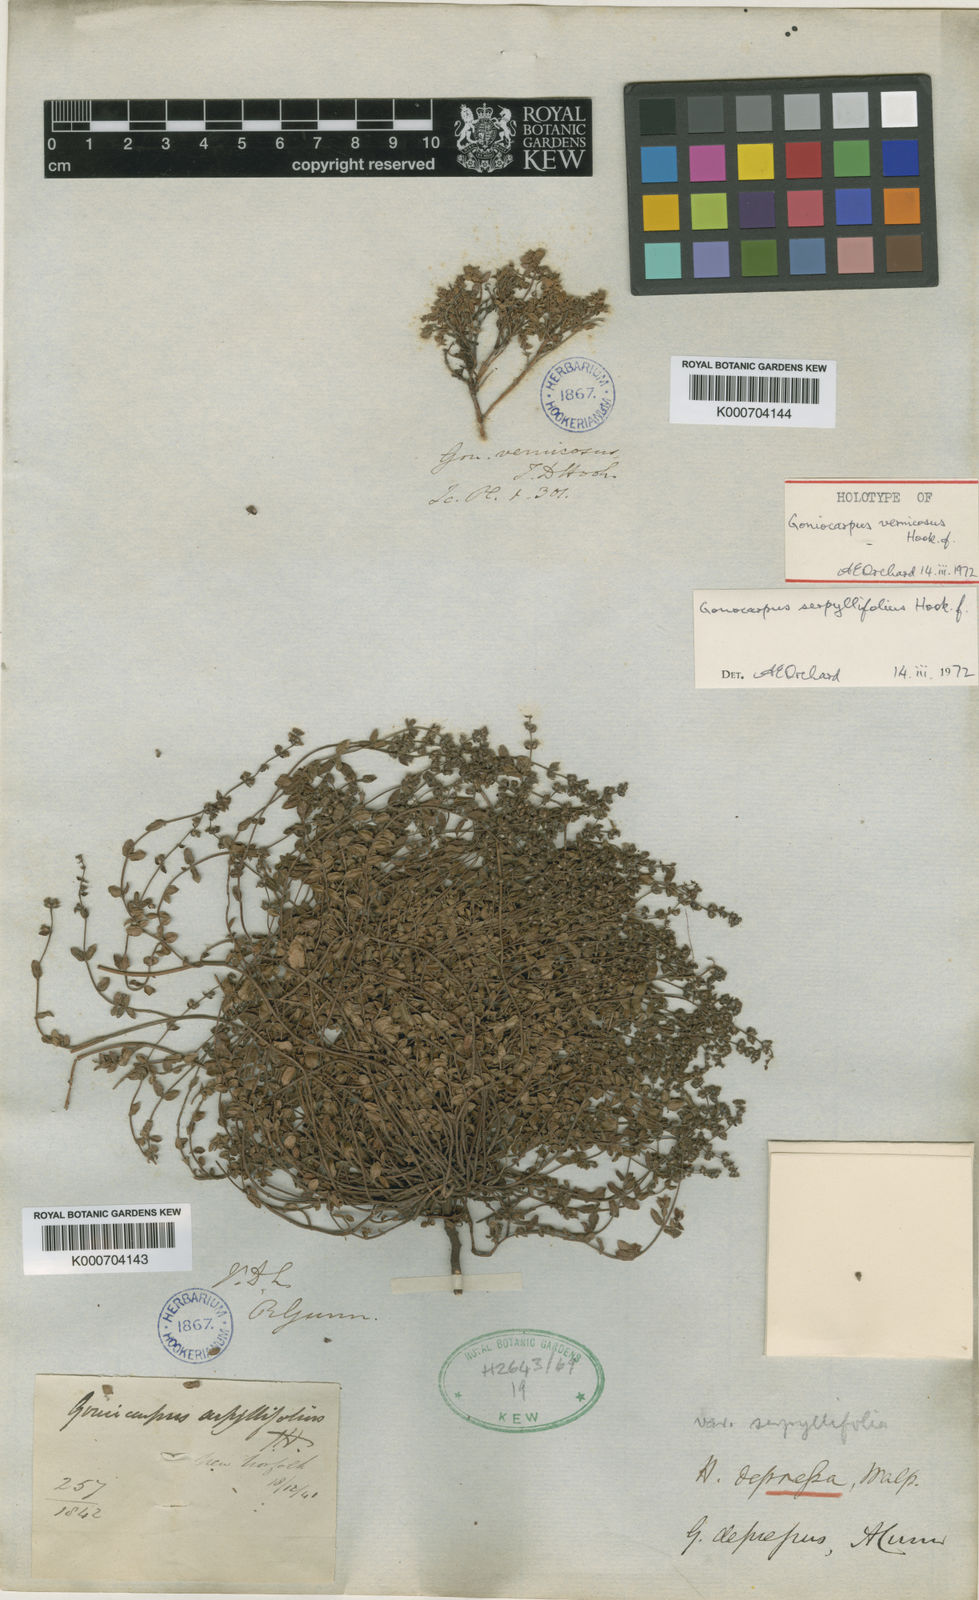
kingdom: Plantae
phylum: Tracheophyta
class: Magnoliopsida
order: Saxifragales
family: Haloragaceae
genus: Gonocarpus
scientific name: Gonocarpus serpyllifolius
